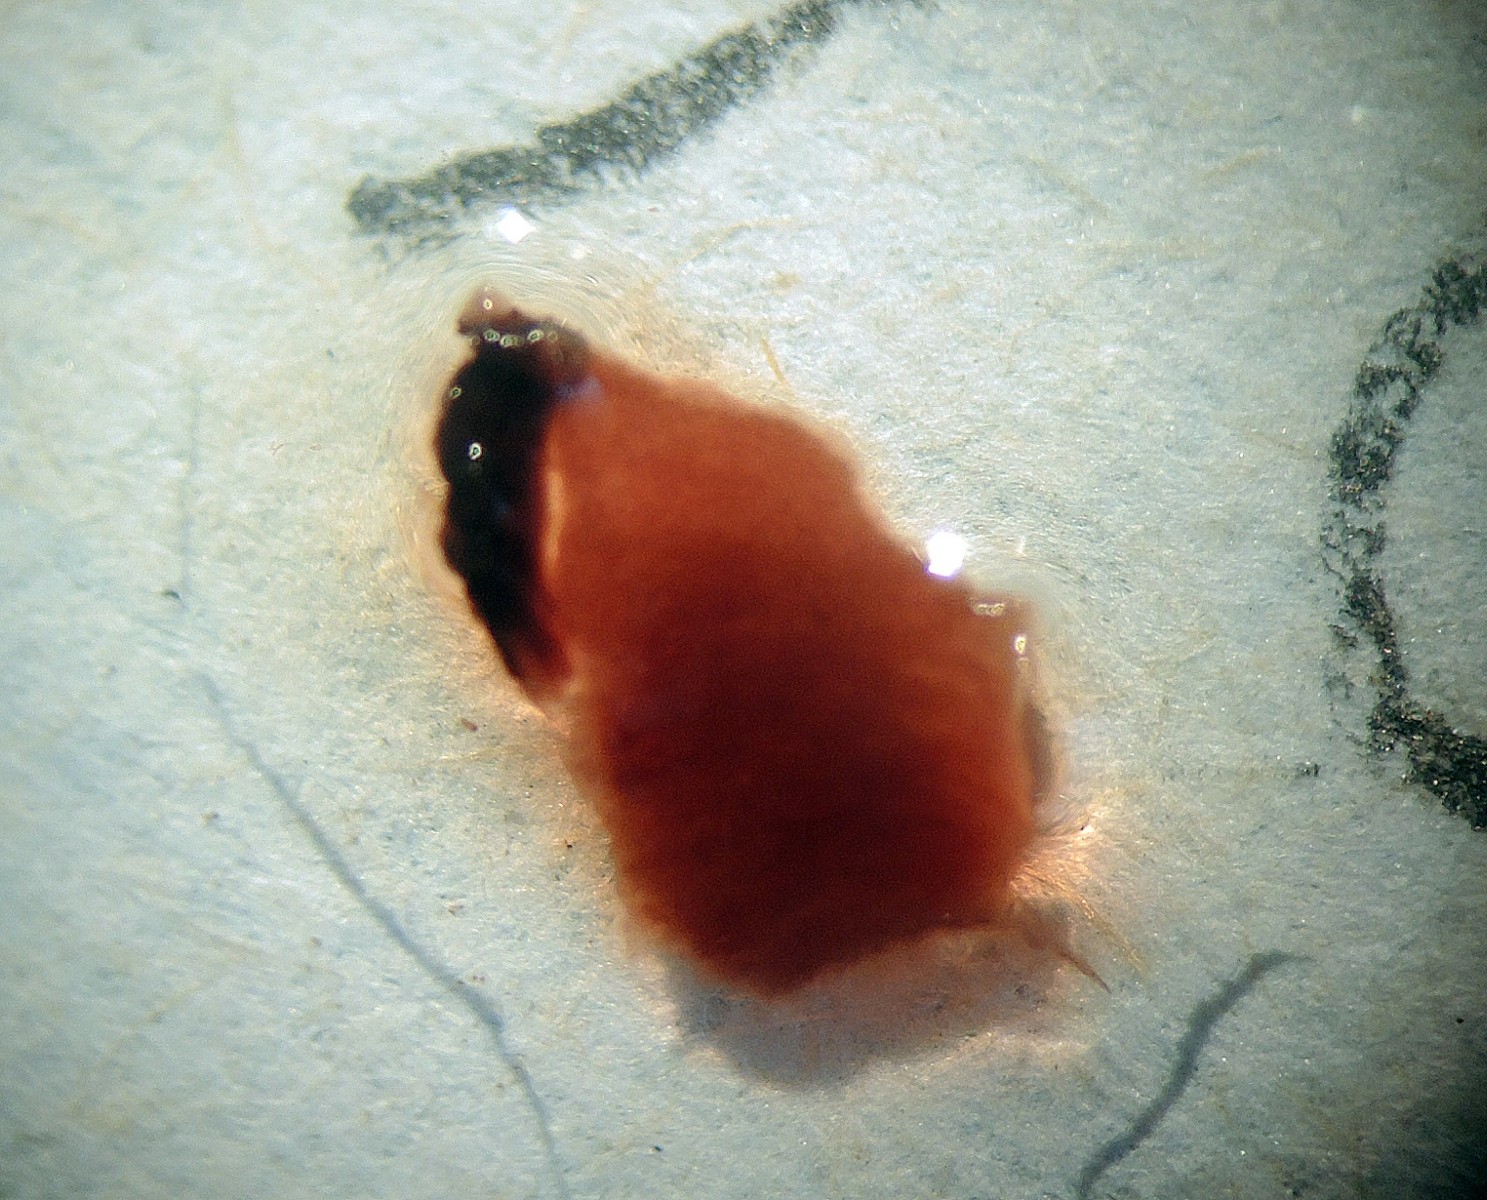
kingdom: Fungi
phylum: Basidiomycota
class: Agaricomycetes
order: Agaricales
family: Cortinariaceae
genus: Cortinarius
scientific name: Cortinarius chrysolitus
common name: tørve-slørhat
